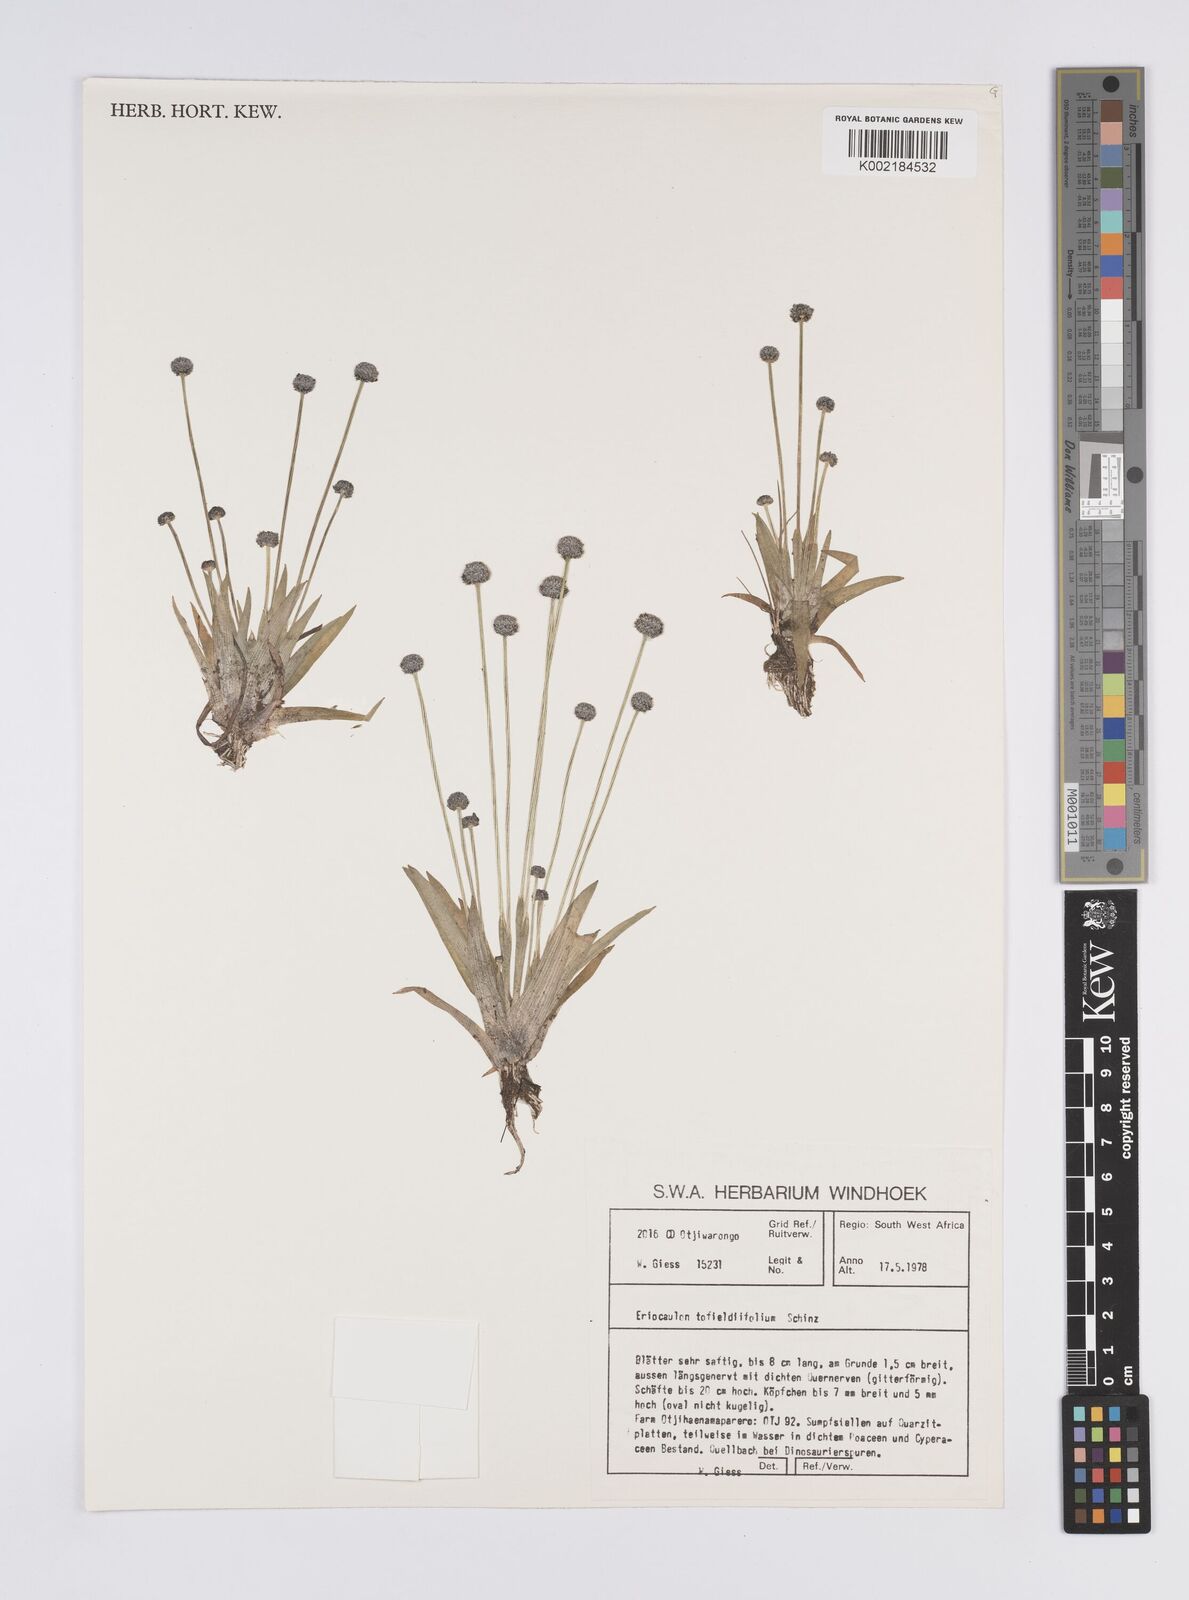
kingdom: Plantae
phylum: Tracheophyta
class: Liliopsida
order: Poales
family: Eriocaulaceae
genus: Eriocaulon
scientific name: Eriocaulon transvaalicum
